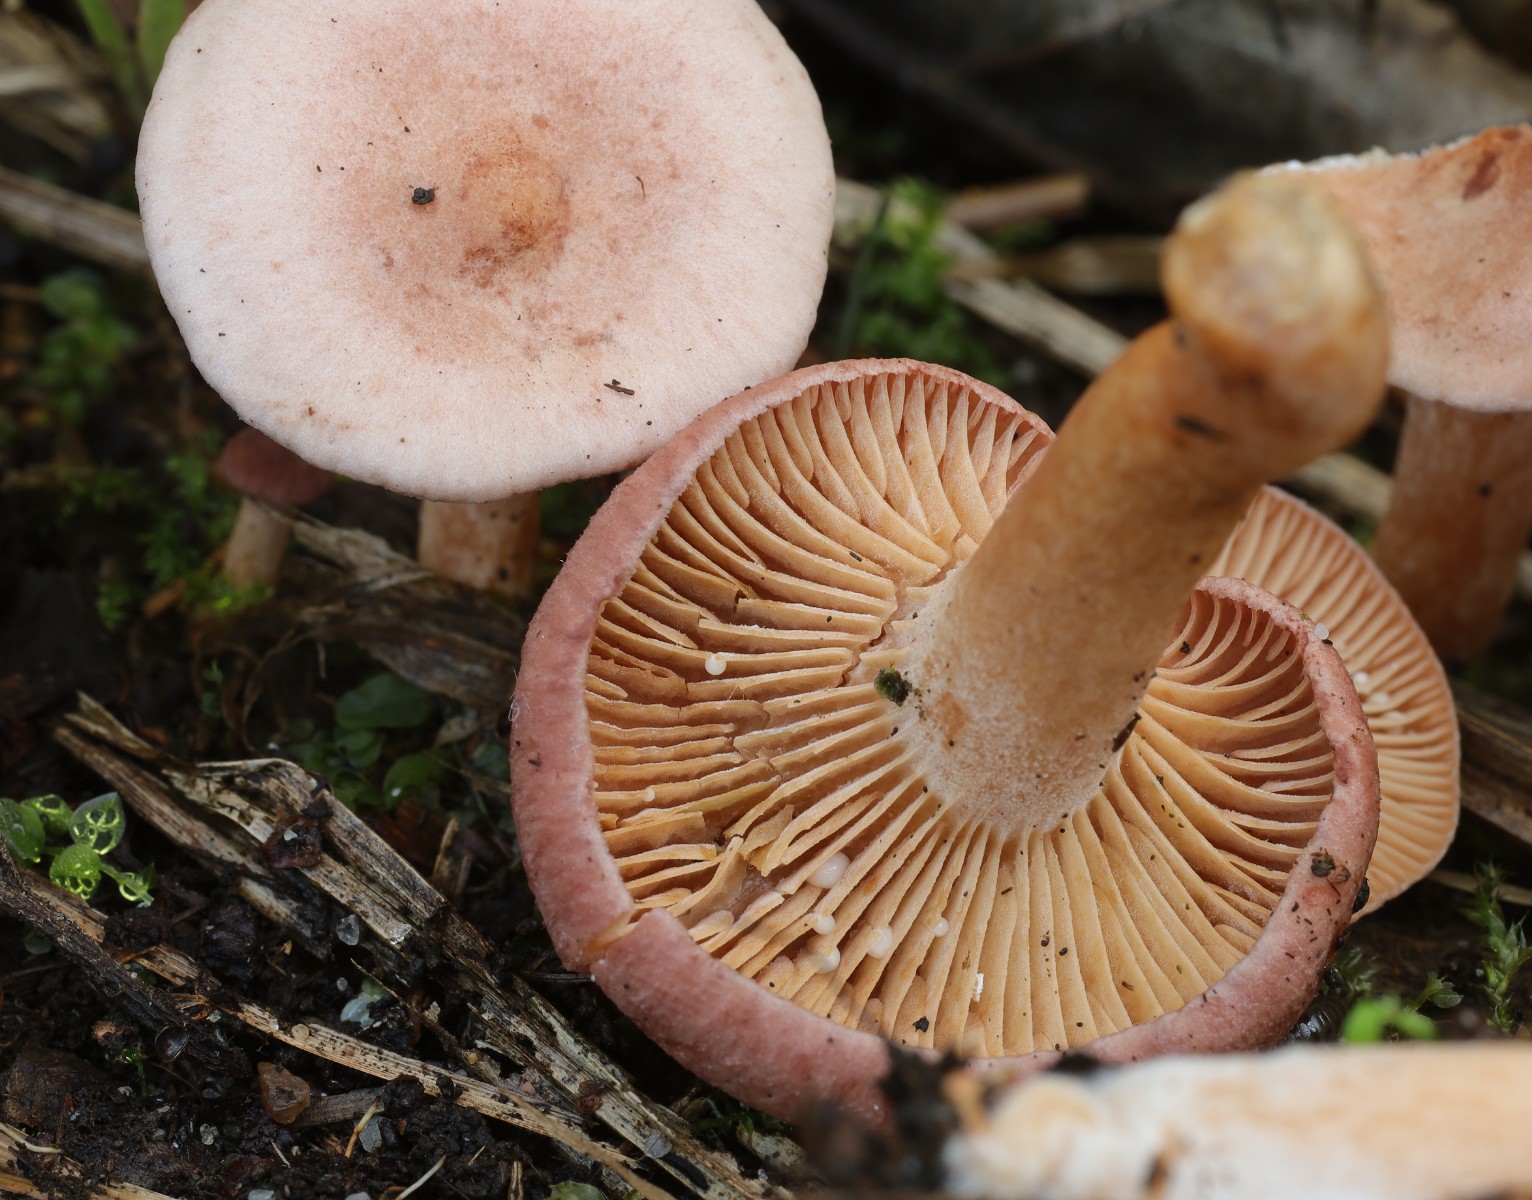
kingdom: Fungi
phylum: Basidiomycota
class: Agaricomycetes
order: Russulales
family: Russulaceae
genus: Lactarius
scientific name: Lactarius lilacinus
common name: lilla mælkehat
